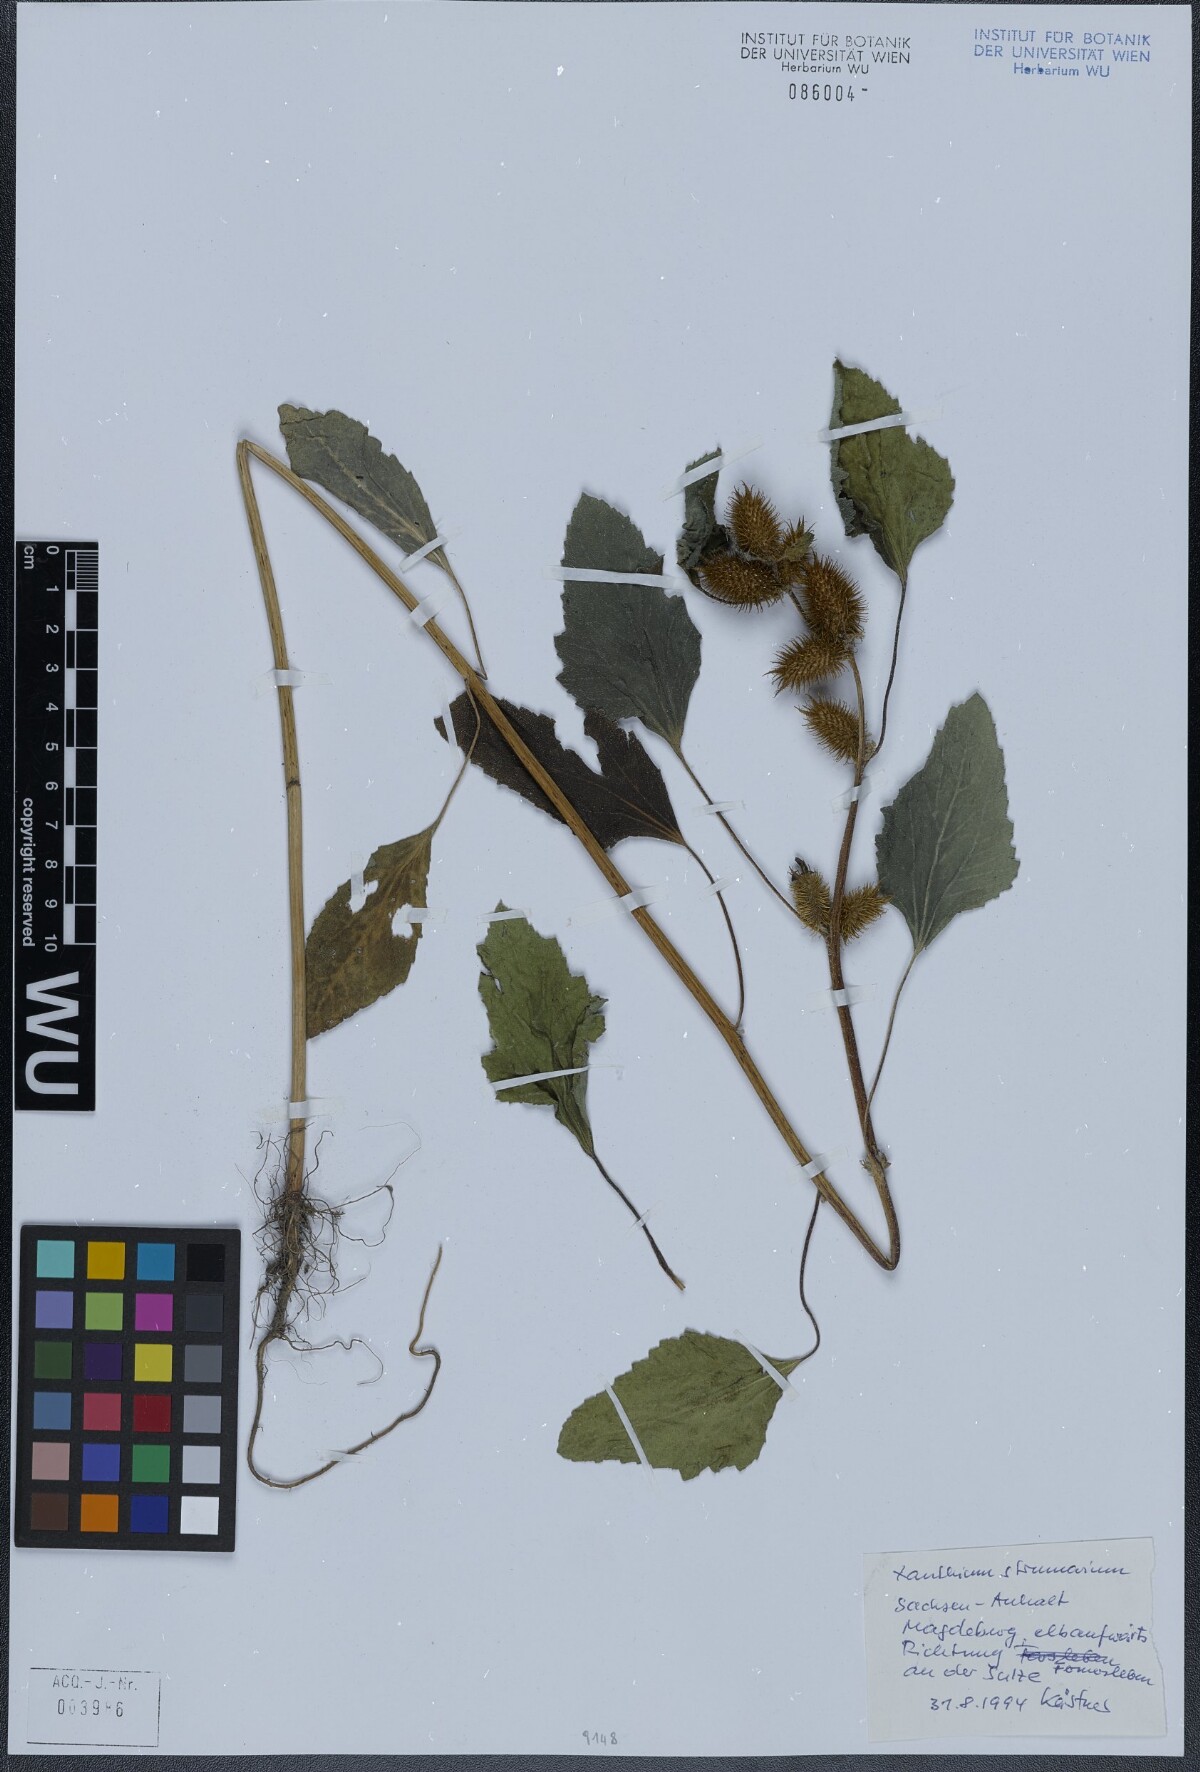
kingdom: Plantae
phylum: Tracheophyta
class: Magnoliopsida
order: Asterales
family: Asteraceae
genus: Xanthium
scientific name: Xanthium strumarium
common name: Rough cocklebur
